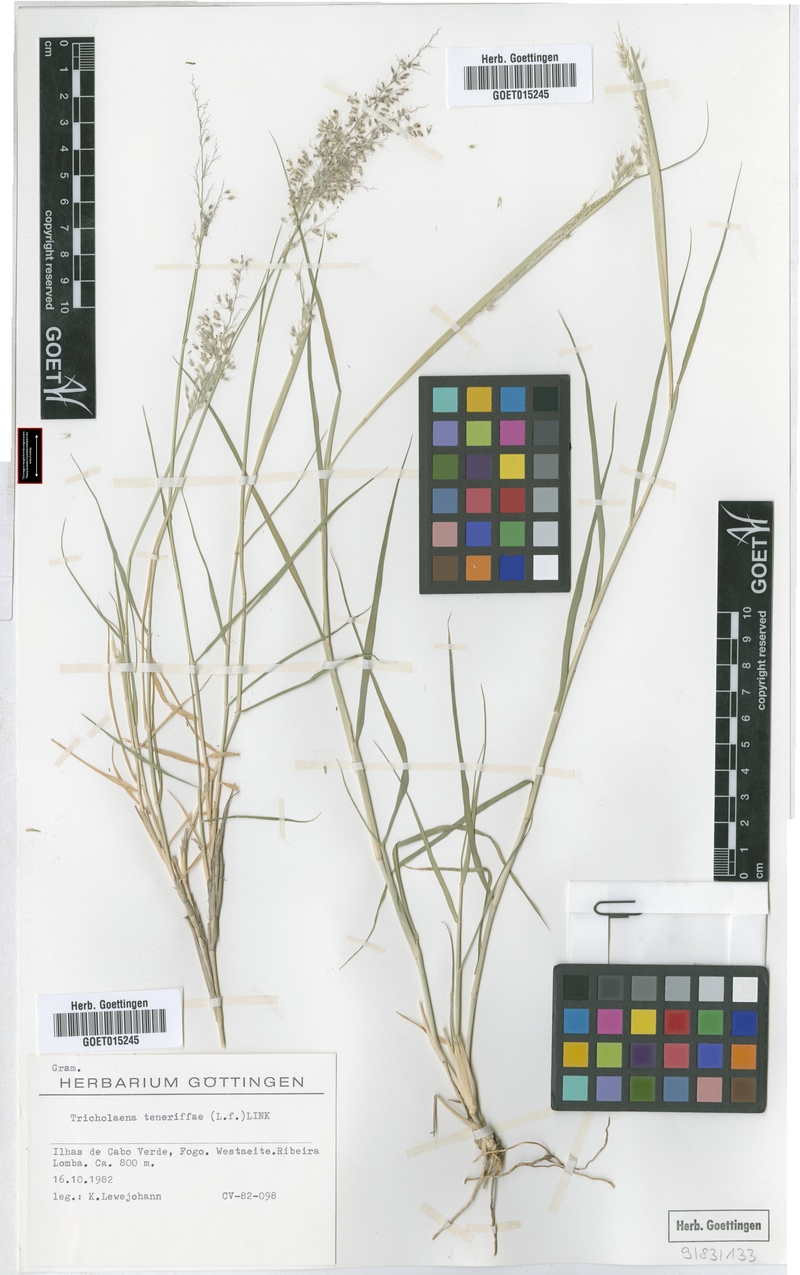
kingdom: Plantae
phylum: Tracheophyta
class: Liliopsida
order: Poales
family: Poaceae
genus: Tricholaena
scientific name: Tricholaena teneriffae
